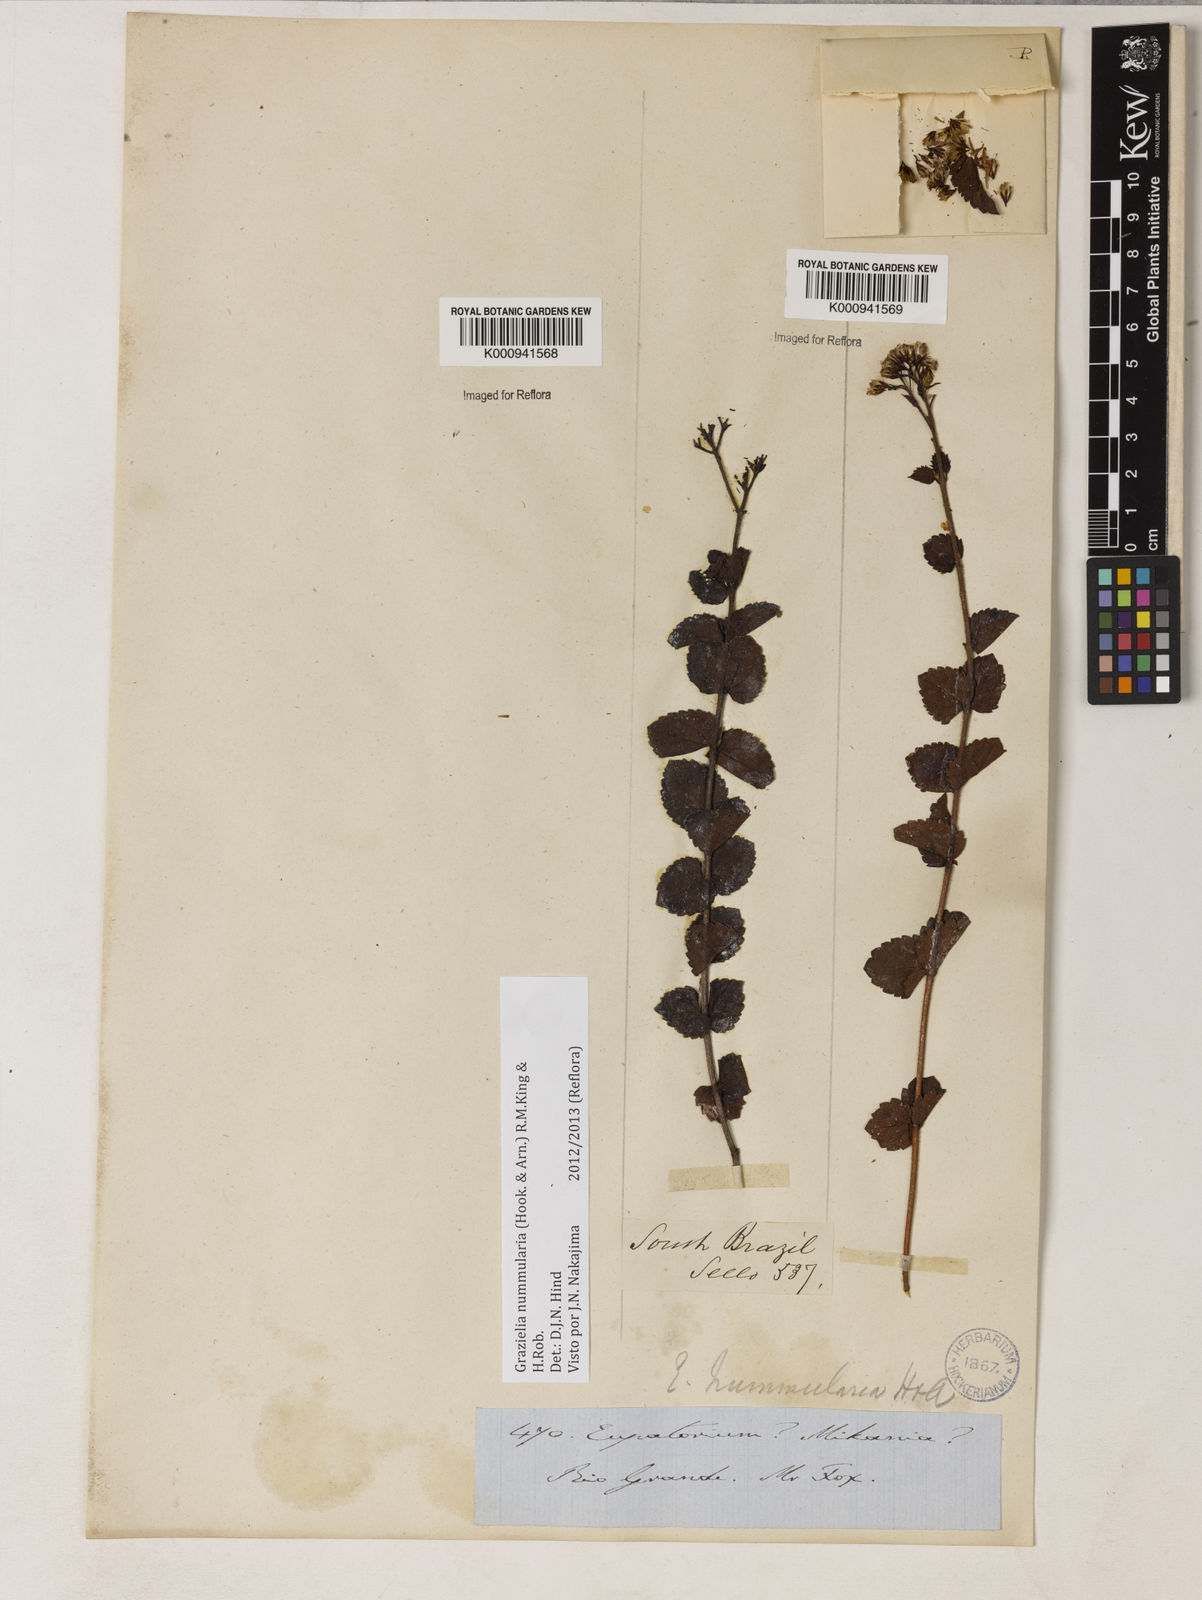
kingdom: Plantae
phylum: Tracheophyta
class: Magnoliopsida
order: Asterales
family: Asteraceae
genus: Grazielia
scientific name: Grazielia nummularia
